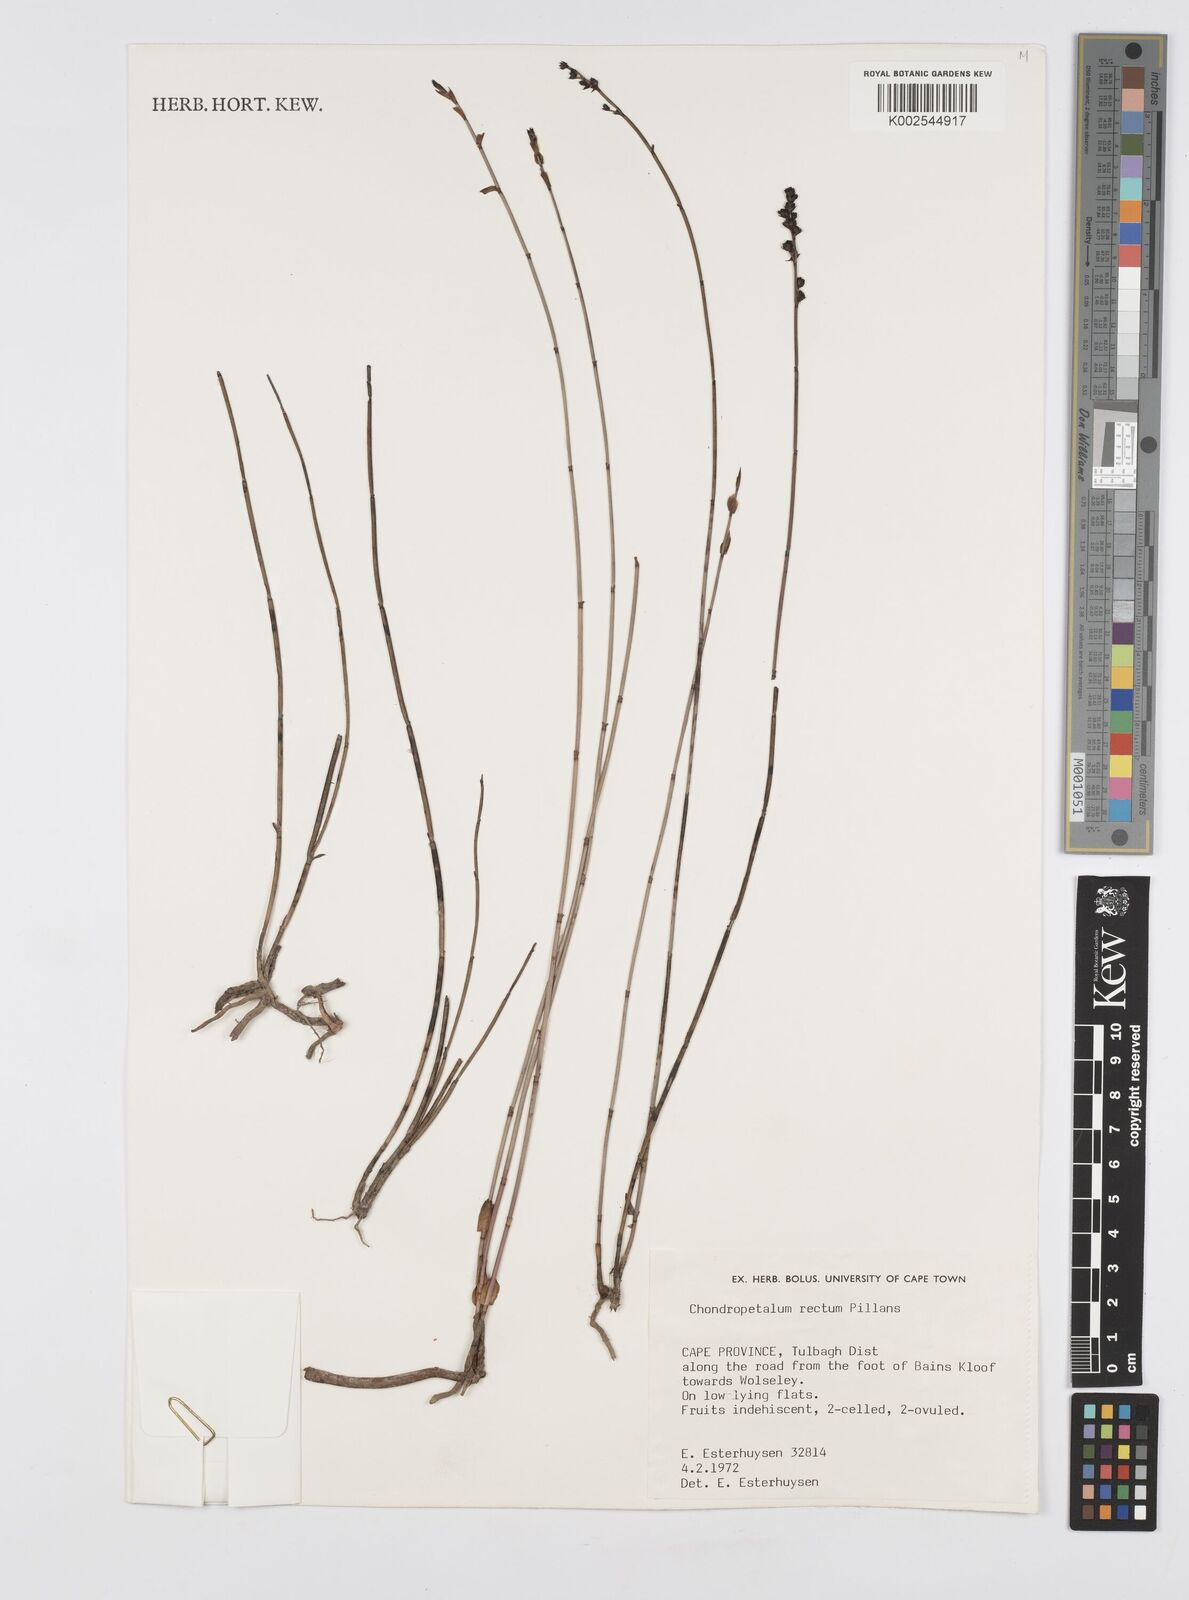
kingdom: Plantae
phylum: Tracheophyta
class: Liliopsida
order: Poales
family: Restionaceae
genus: Elegia
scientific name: Elegia recta
